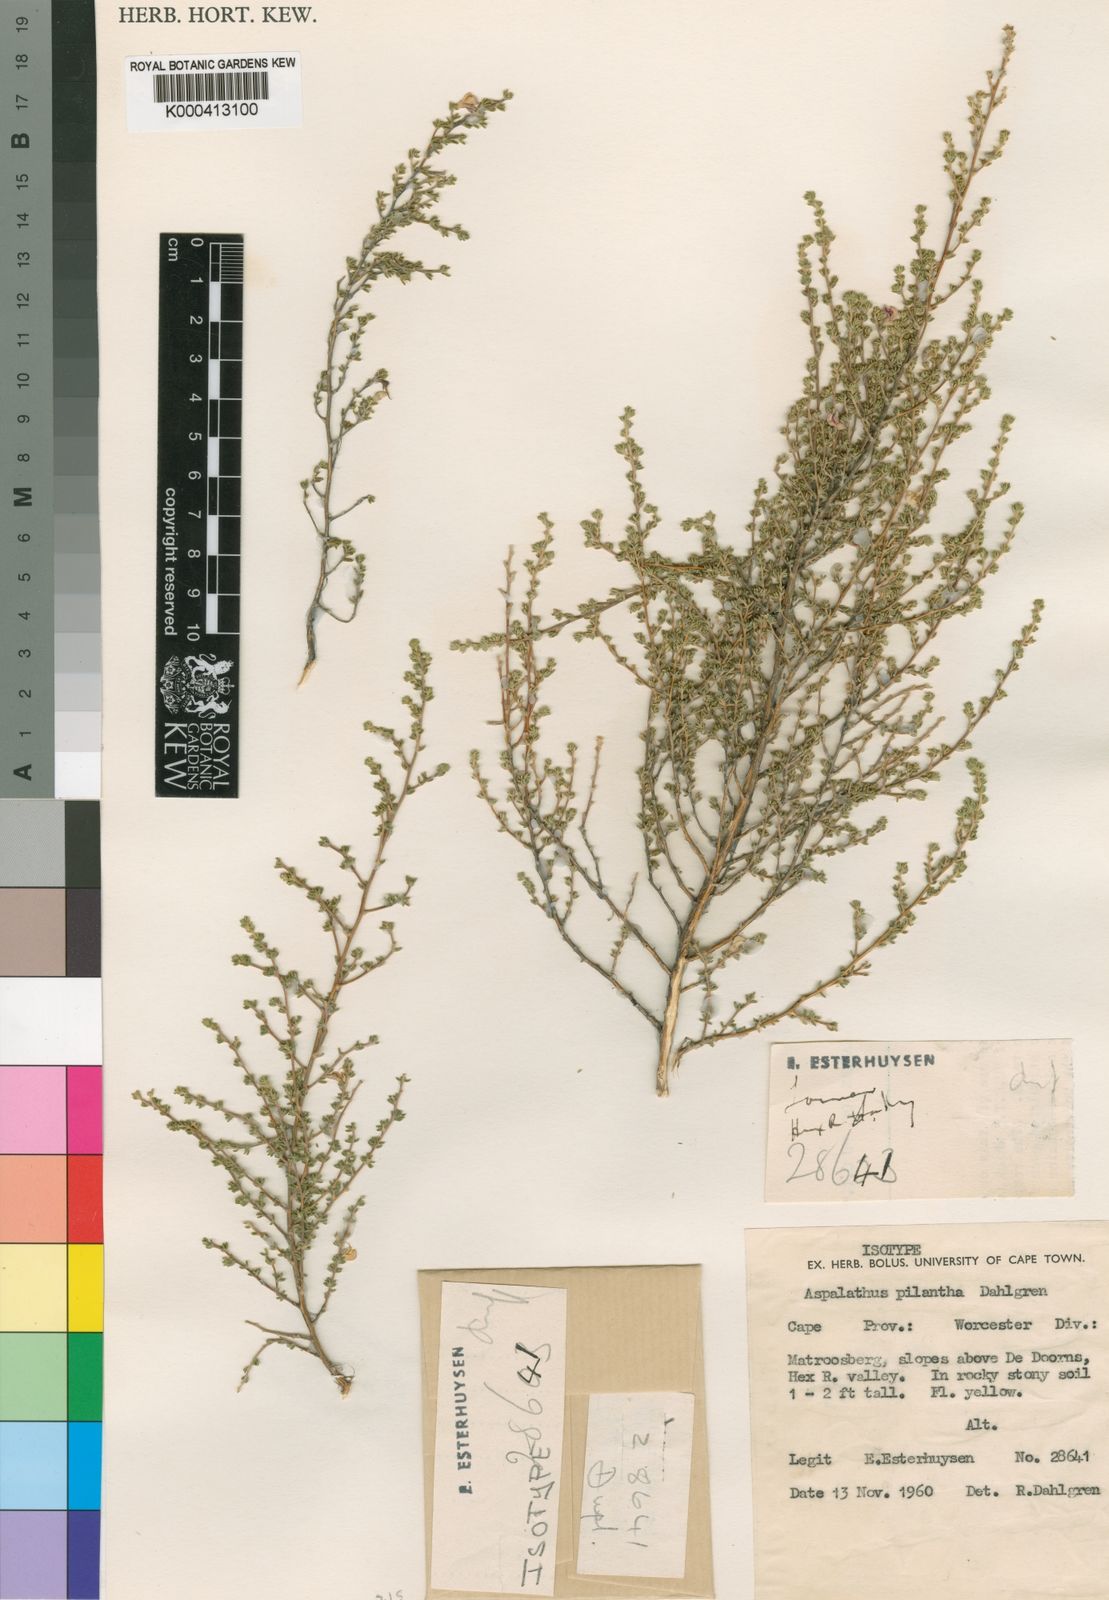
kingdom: Plantae
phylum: Tracheophyta
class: Magnoliopsida
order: Fabales
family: Fabaceae
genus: Aspalathus
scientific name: Aspalathus pilantha
